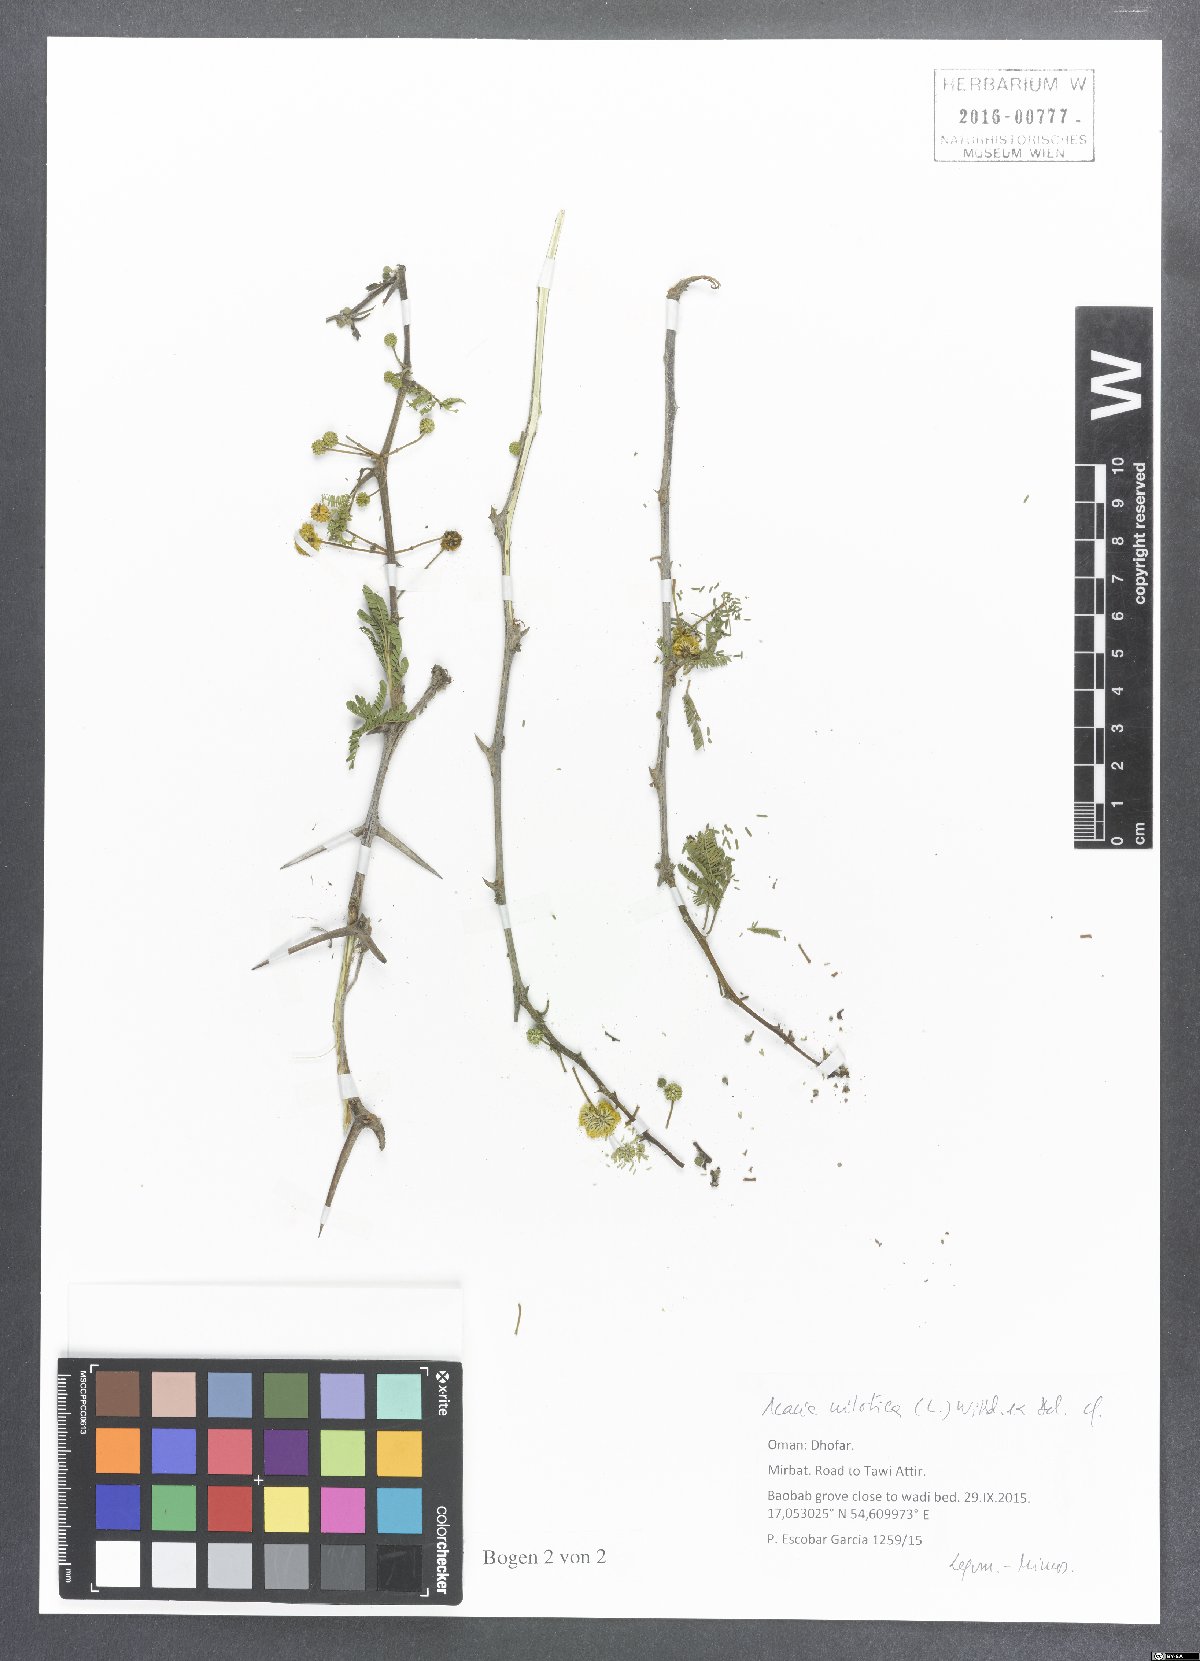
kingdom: Plantae
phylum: Tracheophyta
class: Magnoliopsida
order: Fabales
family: Fabaceae
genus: Vachellia
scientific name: Vachellia nilotica
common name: Arabic gumtree
